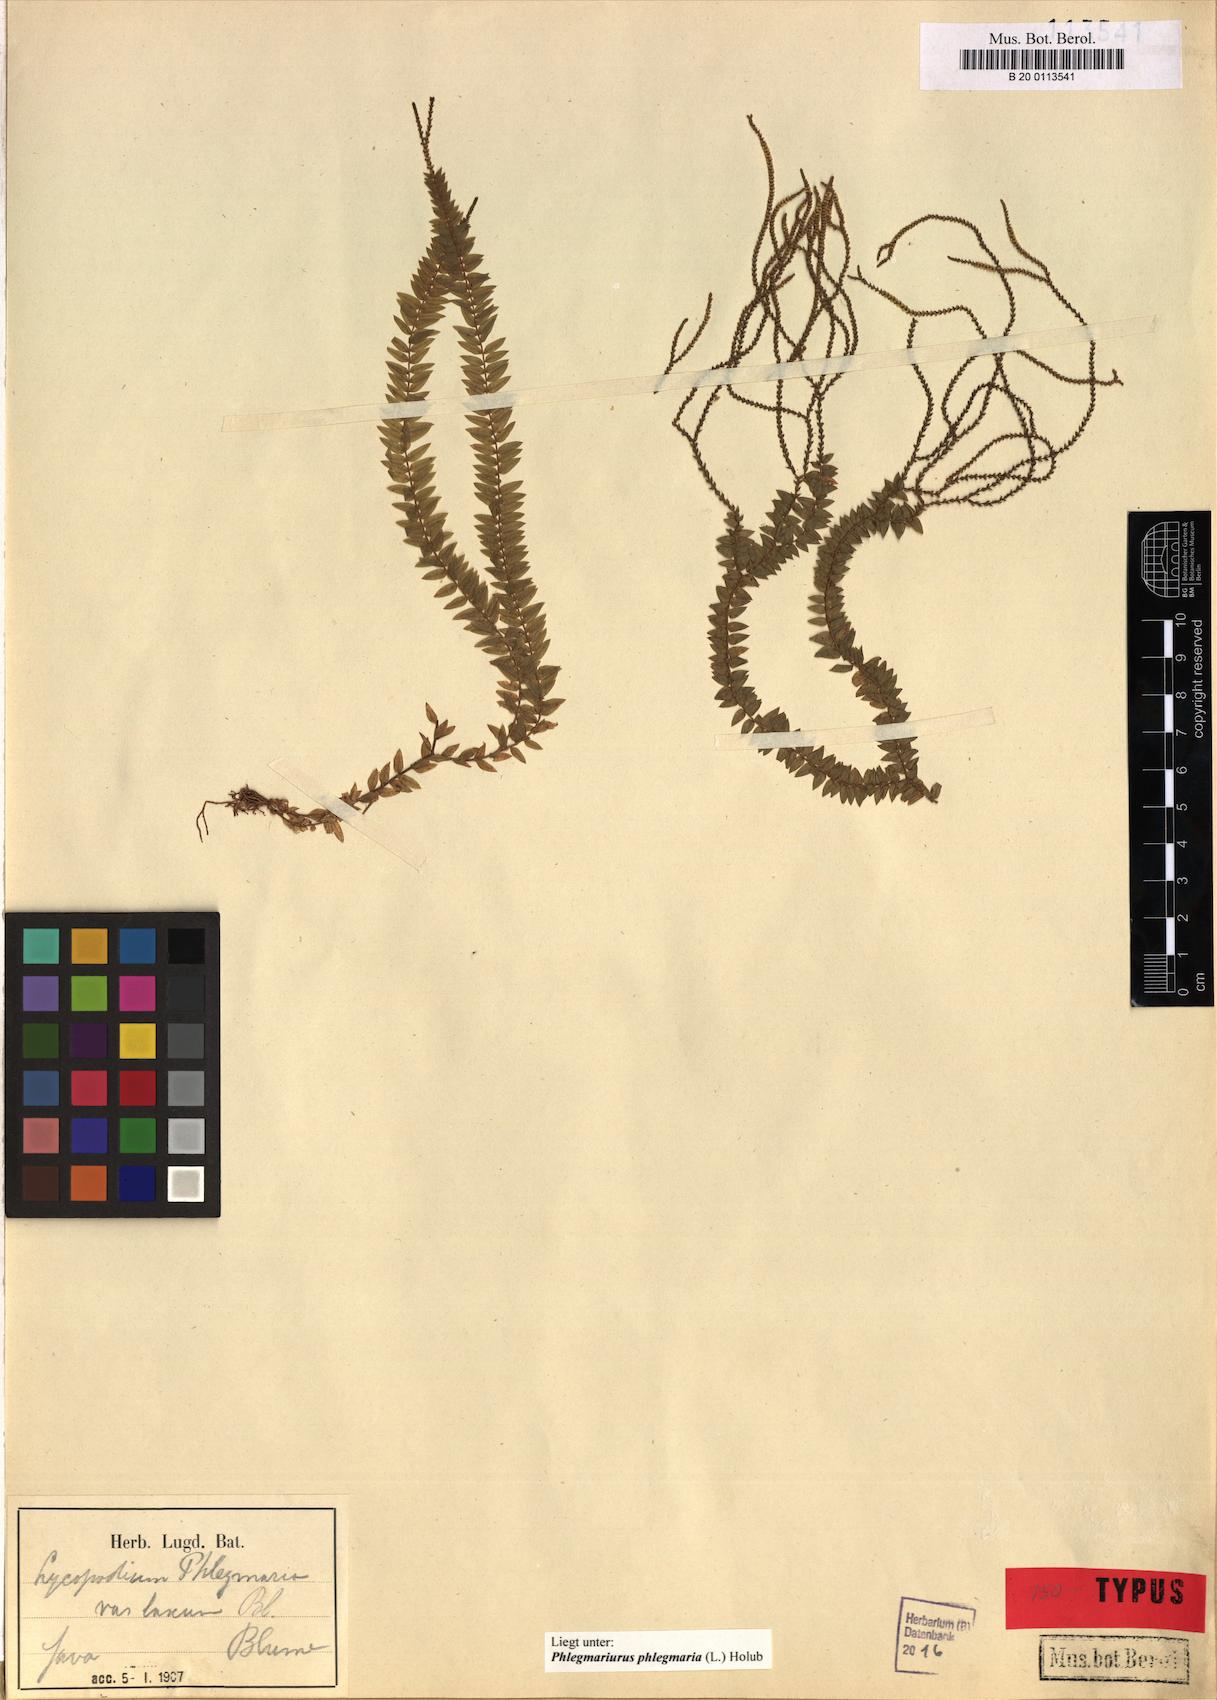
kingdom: Plantae
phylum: Tracheophyta
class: Lycopodiopsida
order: Lycopodiales
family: Lycopodiaceae
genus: Phlegmariurus
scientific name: Phlegmariurus phlegmaria
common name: Coarse tassel-fern
